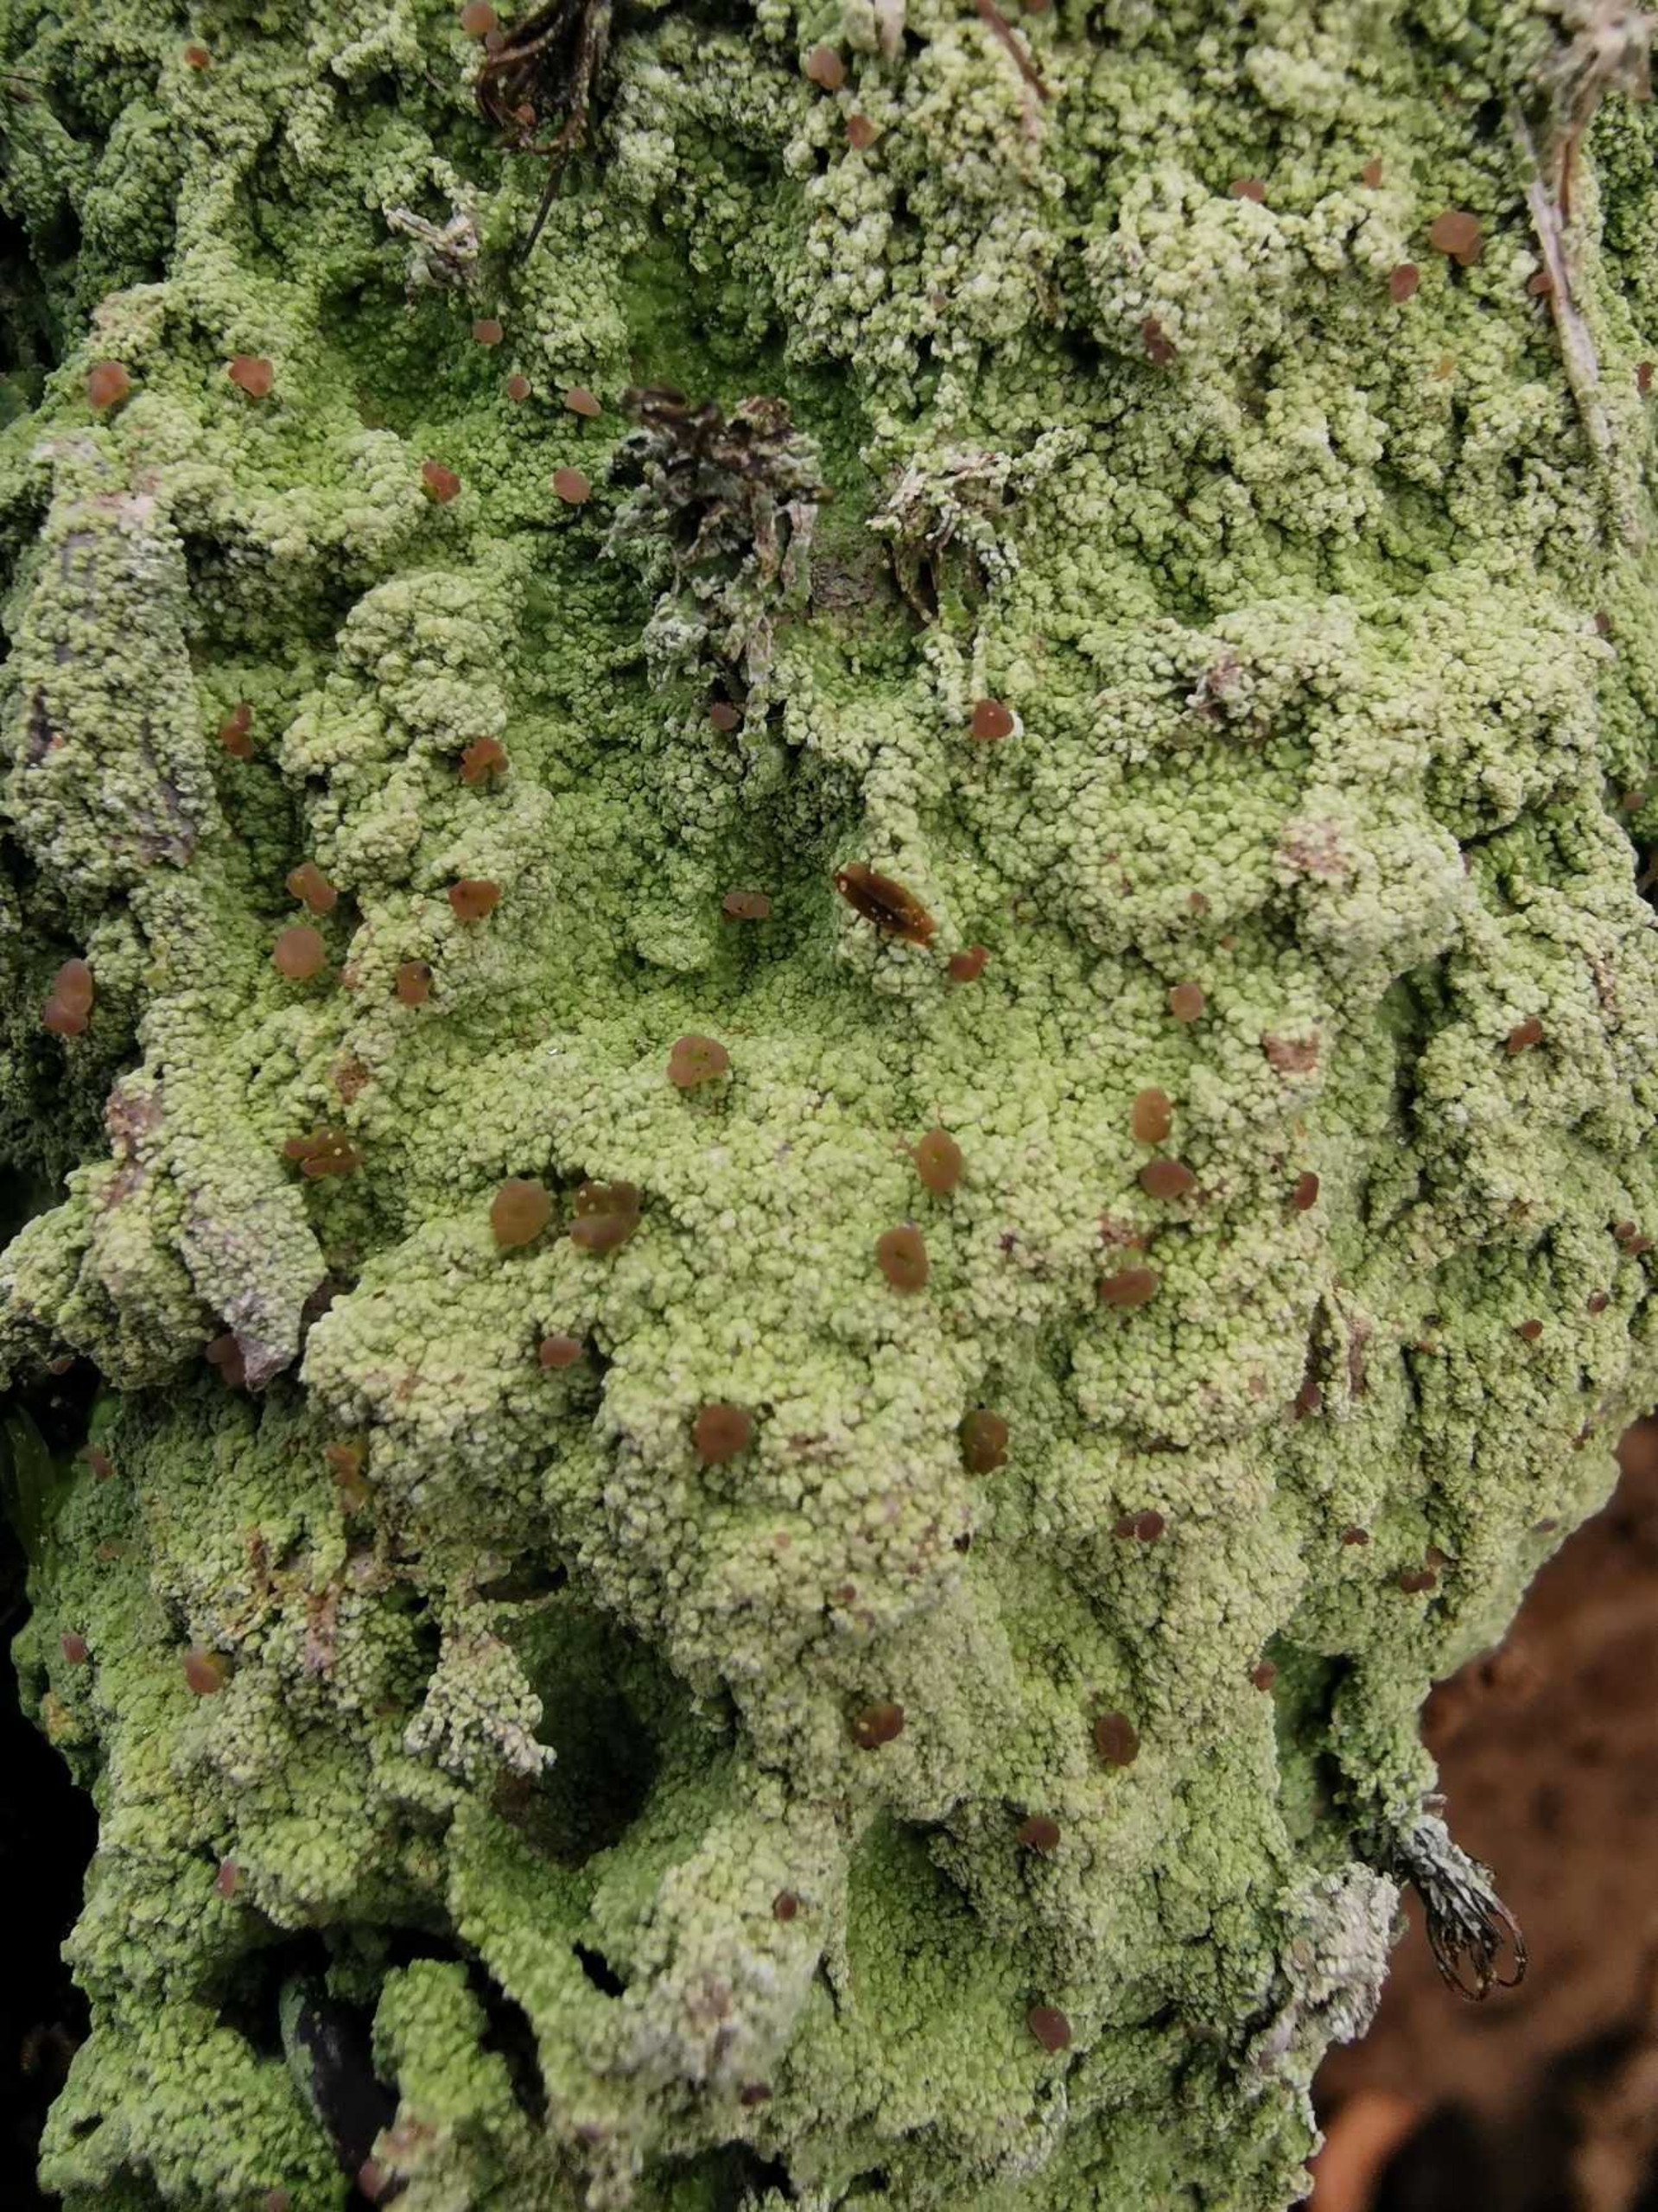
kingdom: Fungi
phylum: Ascomycota
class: Lecanoromycetes
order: Baeomycetales
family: Baeomycetaceae
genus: Baeomyces
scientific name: Baeomyces rufus
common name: Rødbrun svampelav
